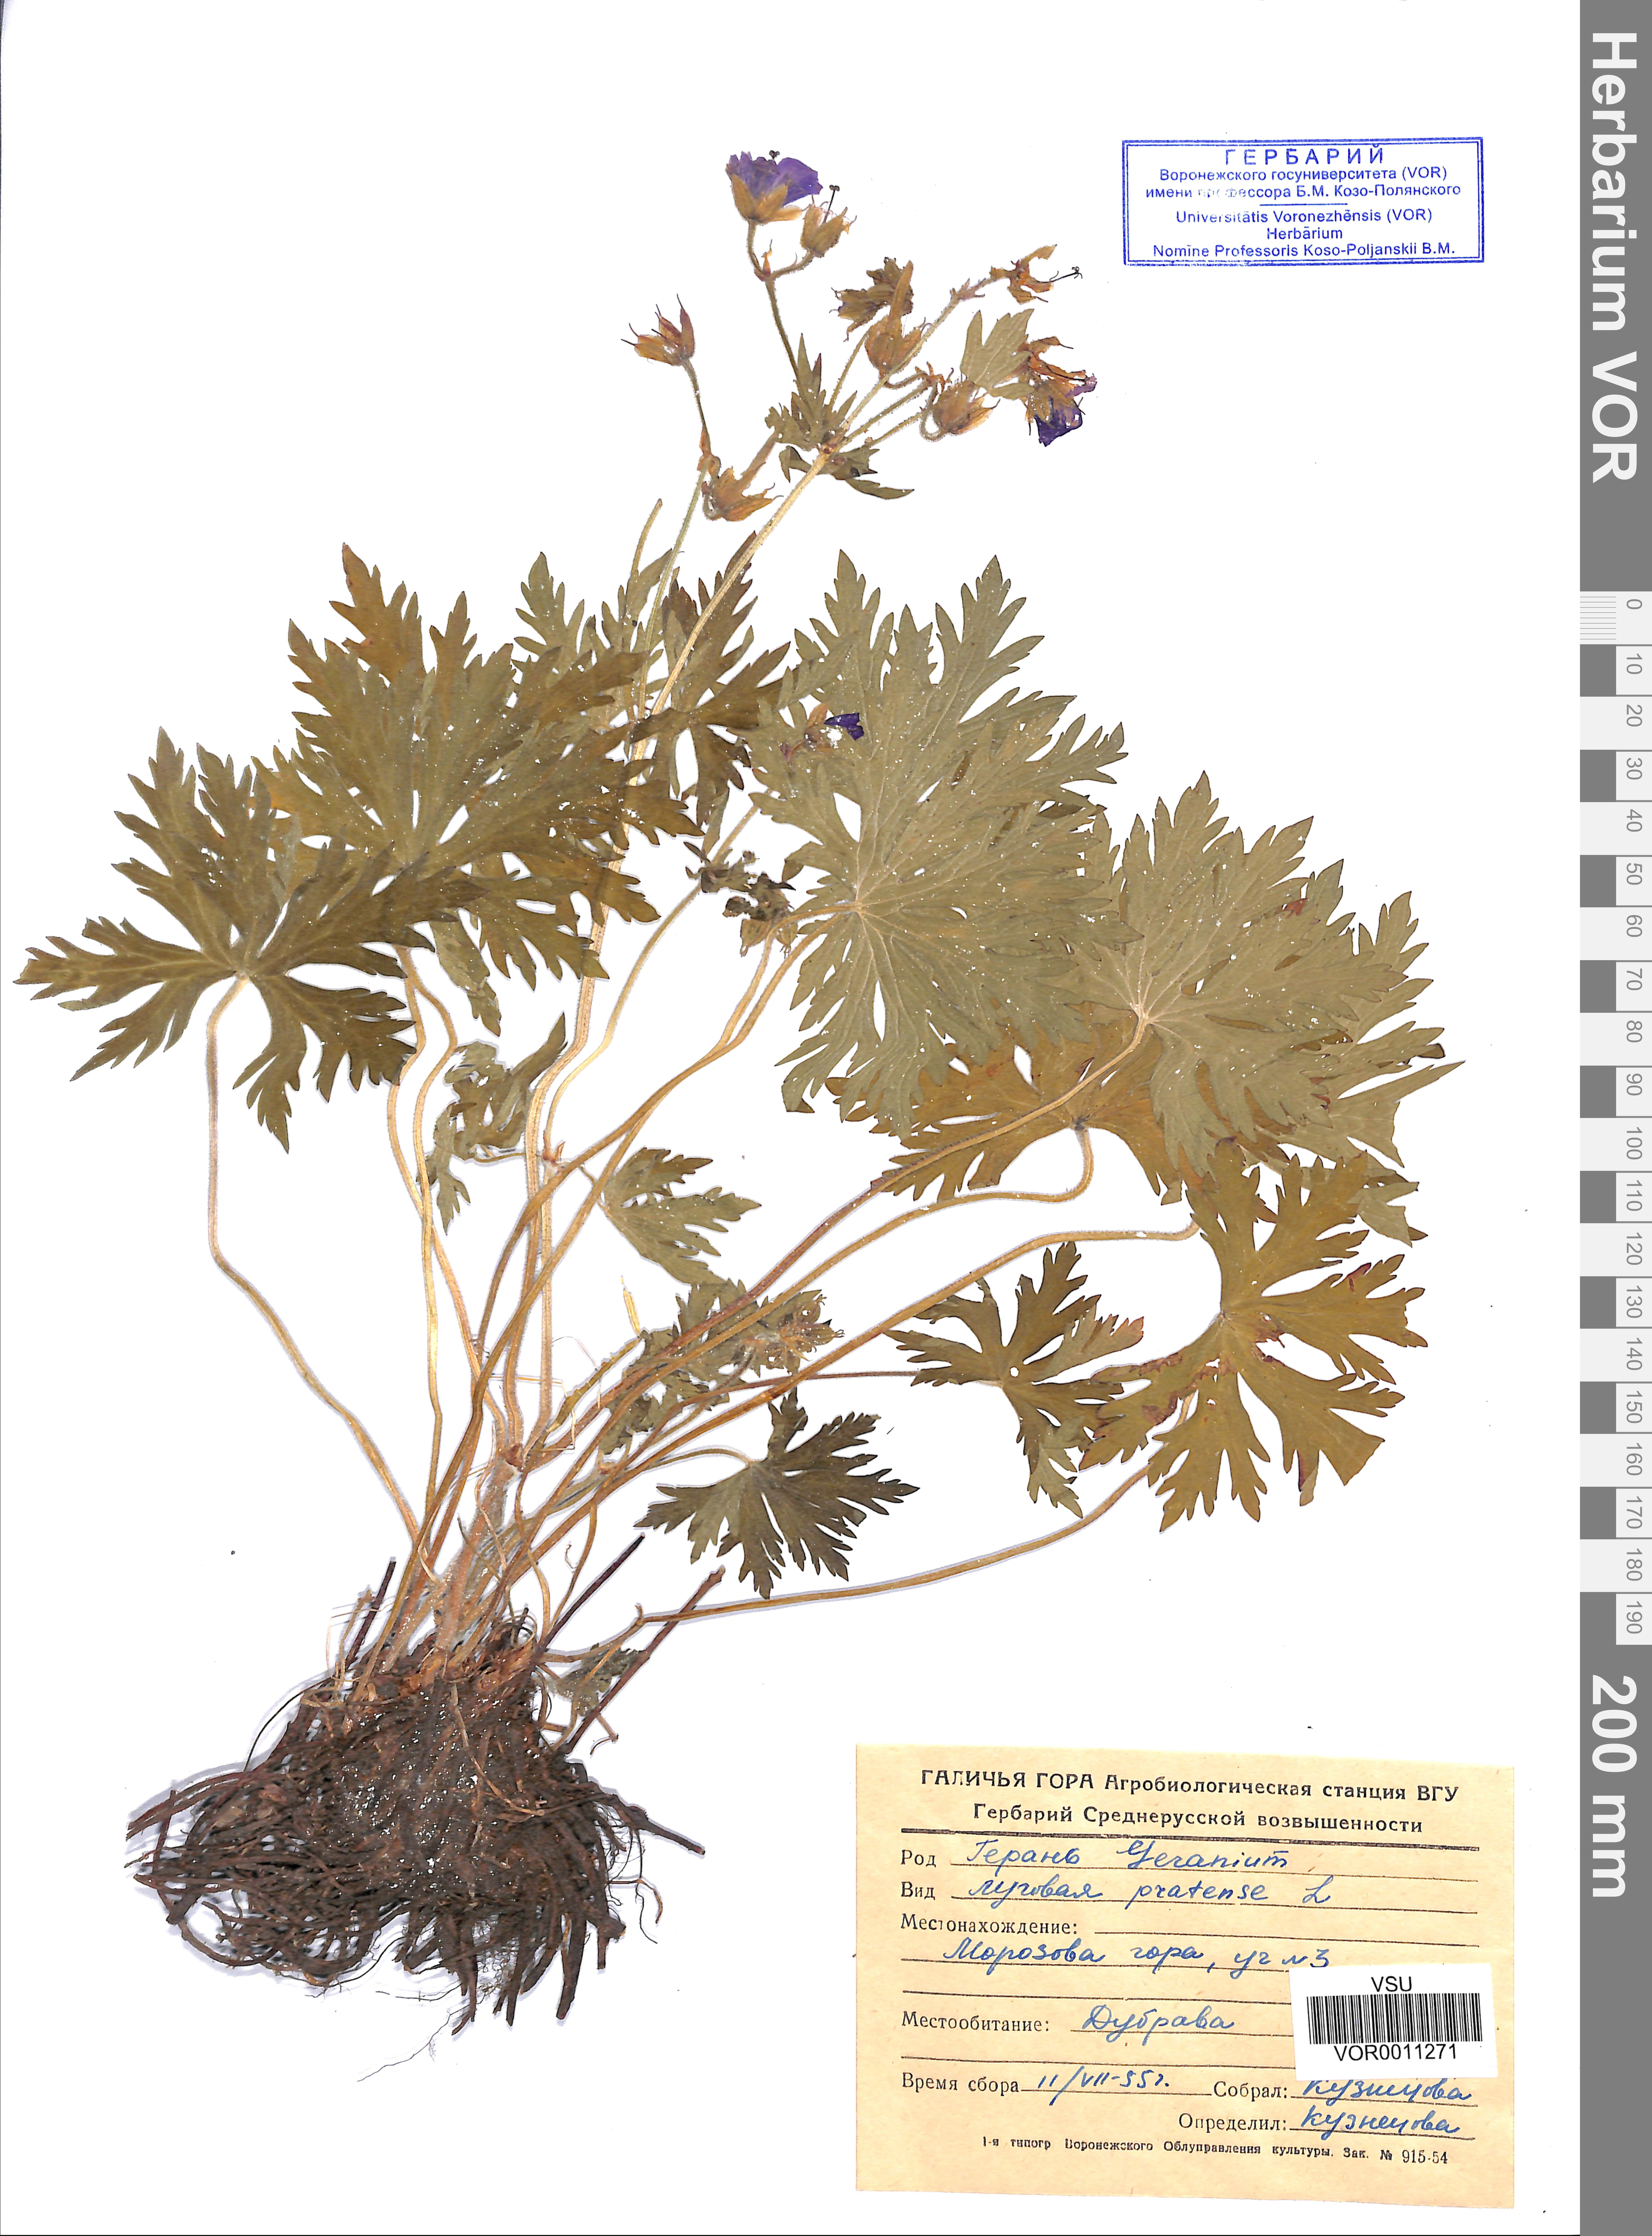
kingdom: Plantae
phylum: Tracheophyta
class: Magnoliopsida
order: Geraniales
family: Geraniaceae
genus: Geranium
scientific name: Geranium pratense
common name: Meadow crane's-bill
